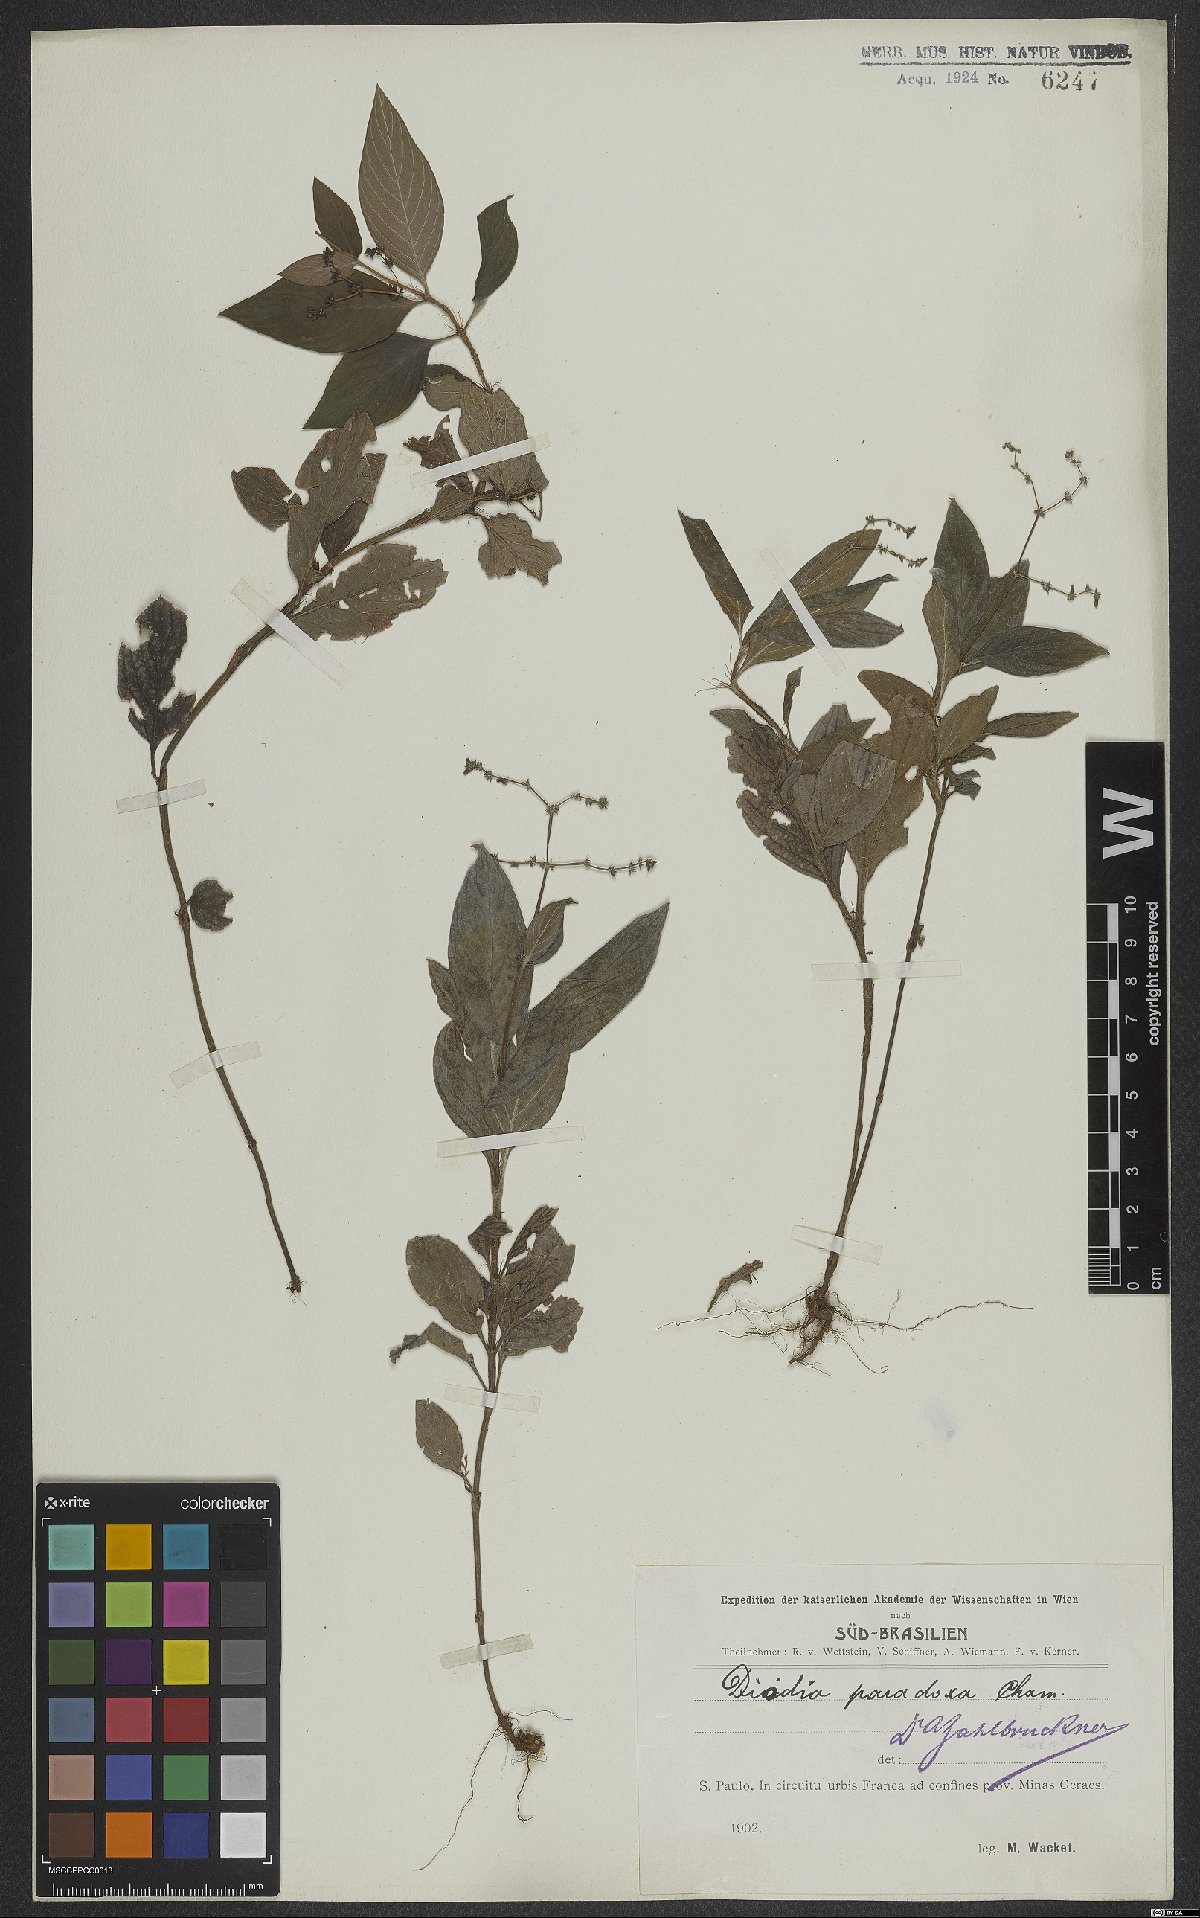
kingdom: Plantae
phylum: Tracheophyta
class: Magnoliopsida
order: Gentianales
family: Rubiaceae
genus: Galianthe
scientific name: Galianthe hispidula
